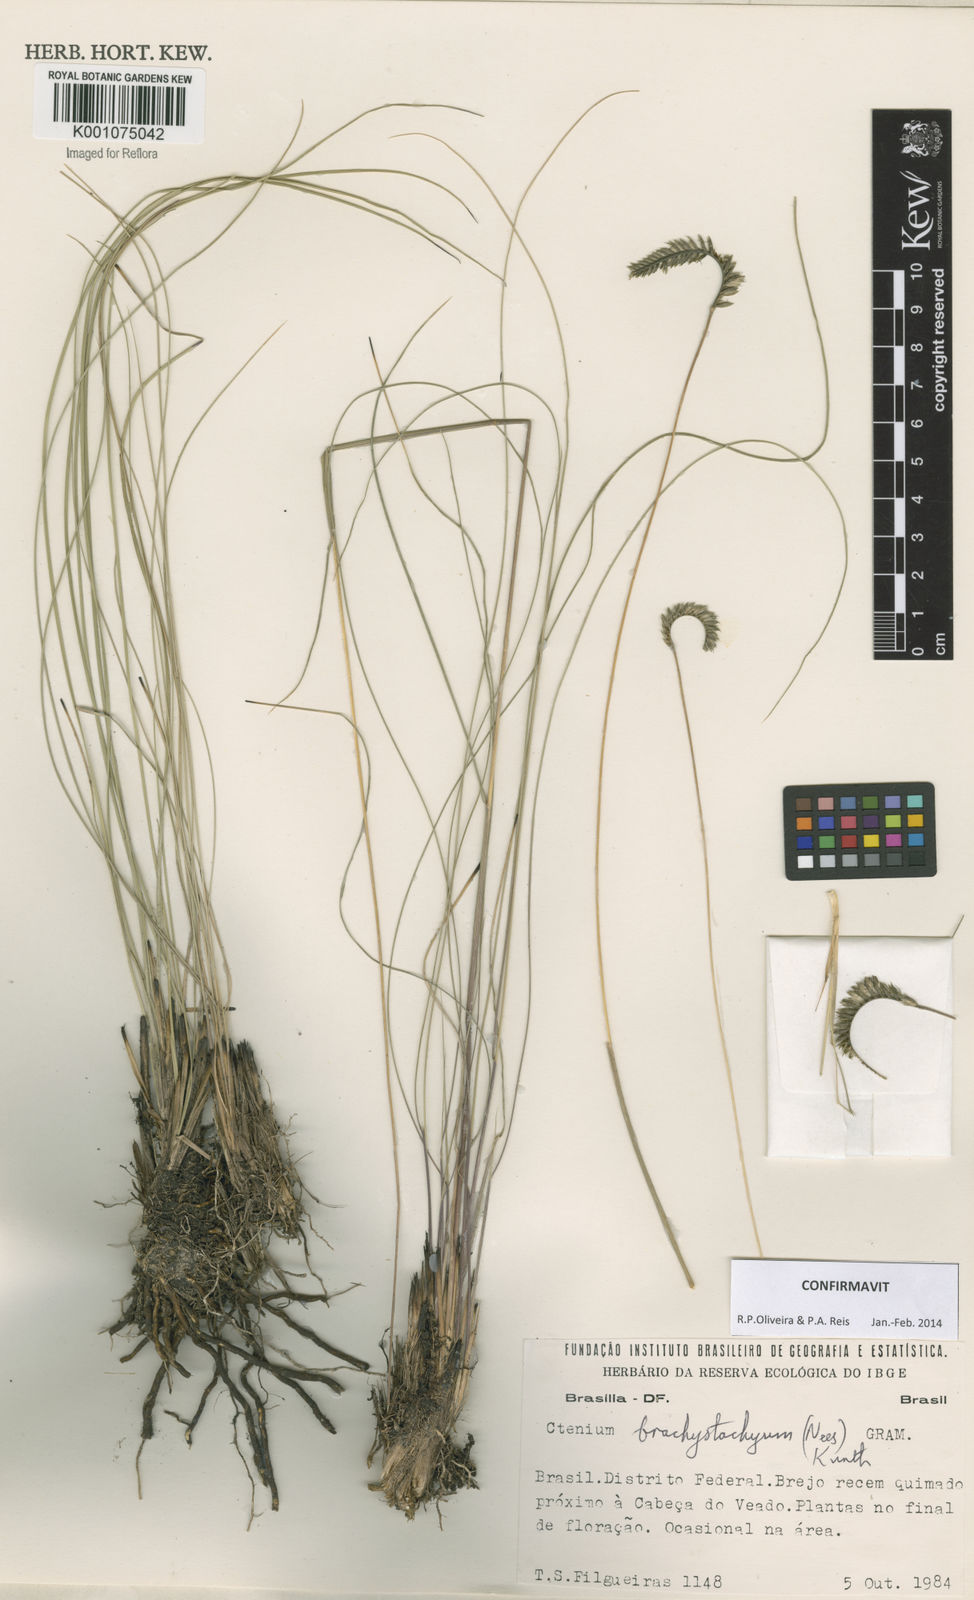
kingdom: Plantae
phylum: Tracheophyta
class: Liliopsida
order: Poales
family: Poaceae
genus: Ctenium
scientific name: Ctenium brachystachyum
